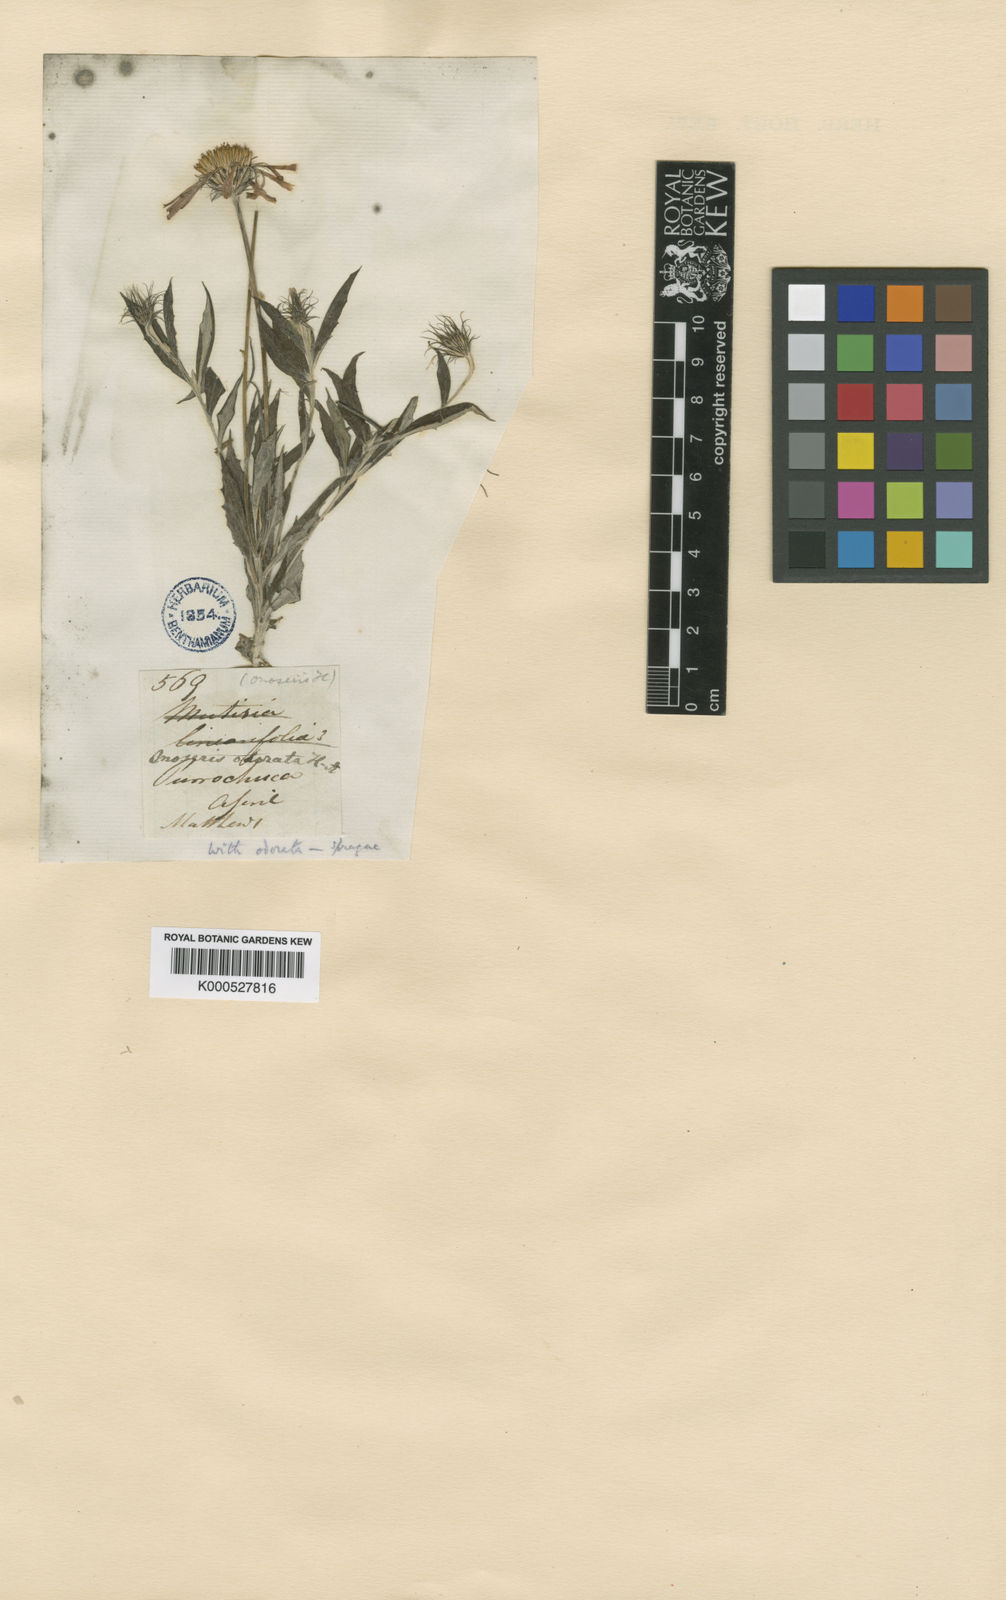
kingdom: Plantae
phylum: Tracheophyta
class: Magnoliopsida
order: Asterales
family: Asteraceae
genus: Onoseris
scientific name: Onoseris odorata
